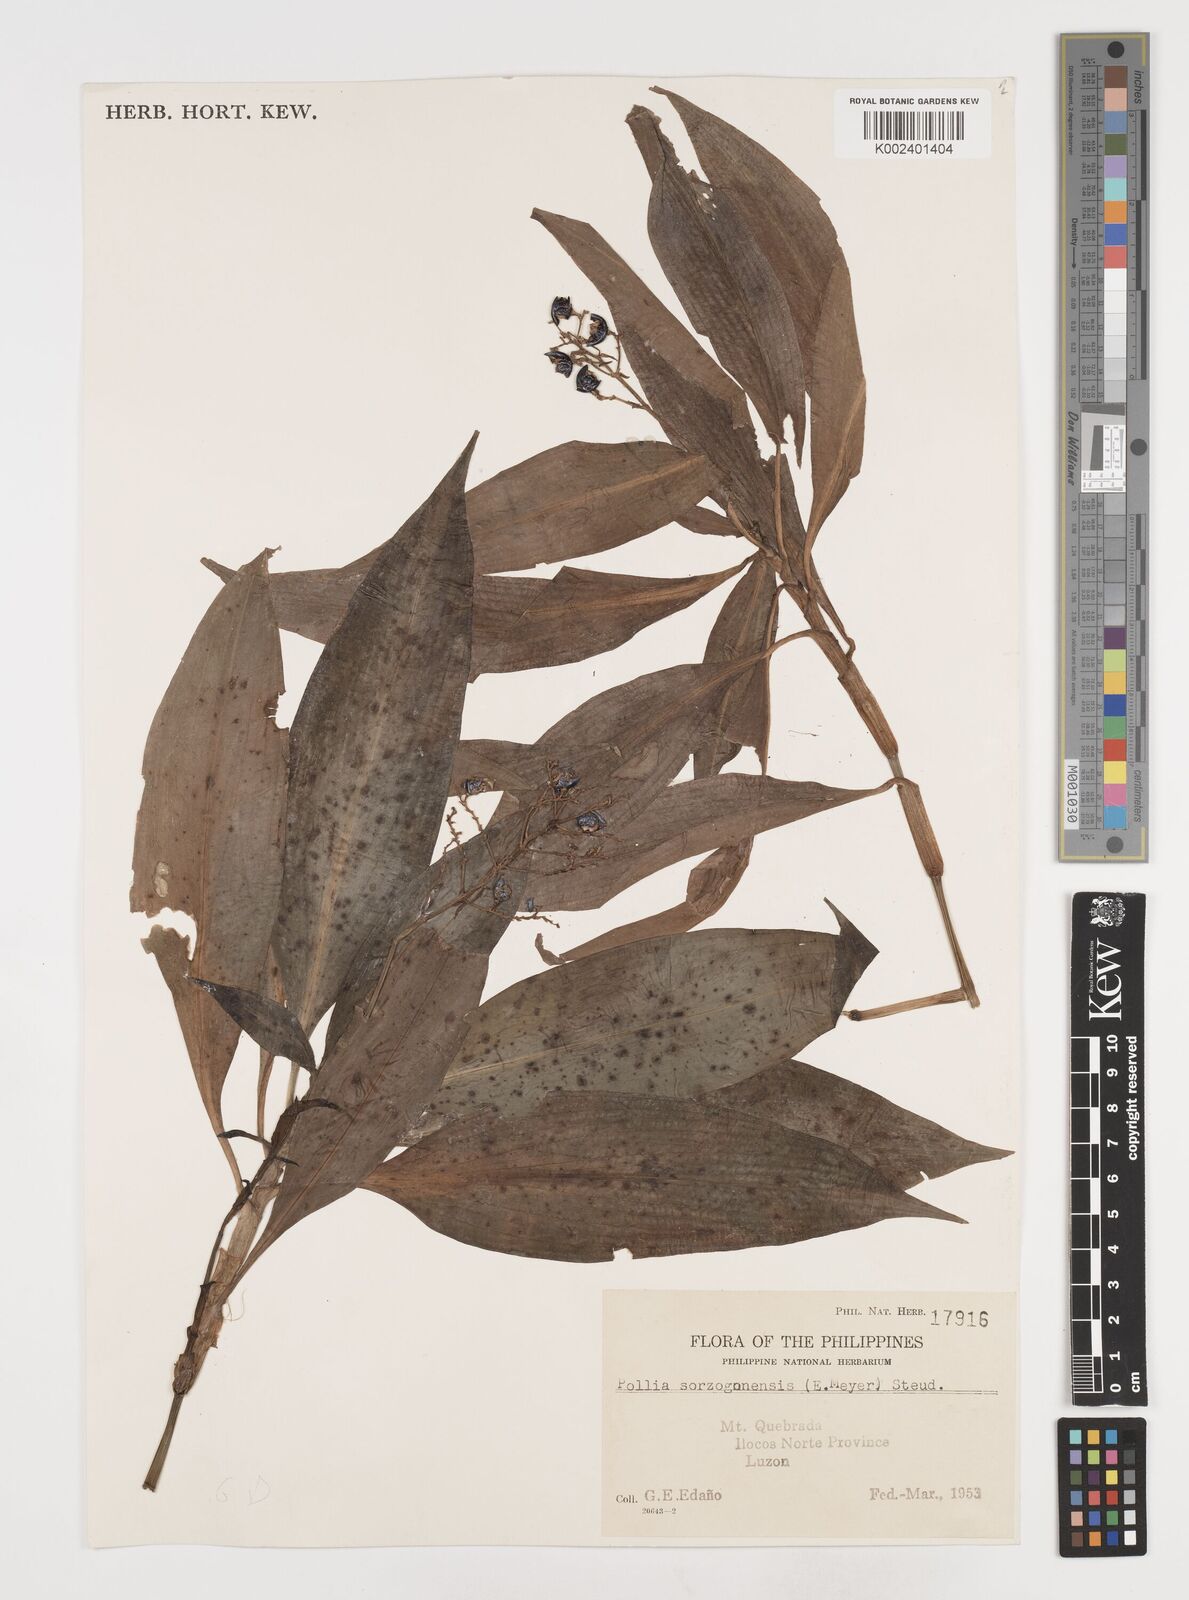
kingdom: Plantae
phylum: Tracheophyta
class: Liliopsida
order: Commelinales
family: Commelinaceae
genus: Pollia
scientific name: Pollia secundiflora
